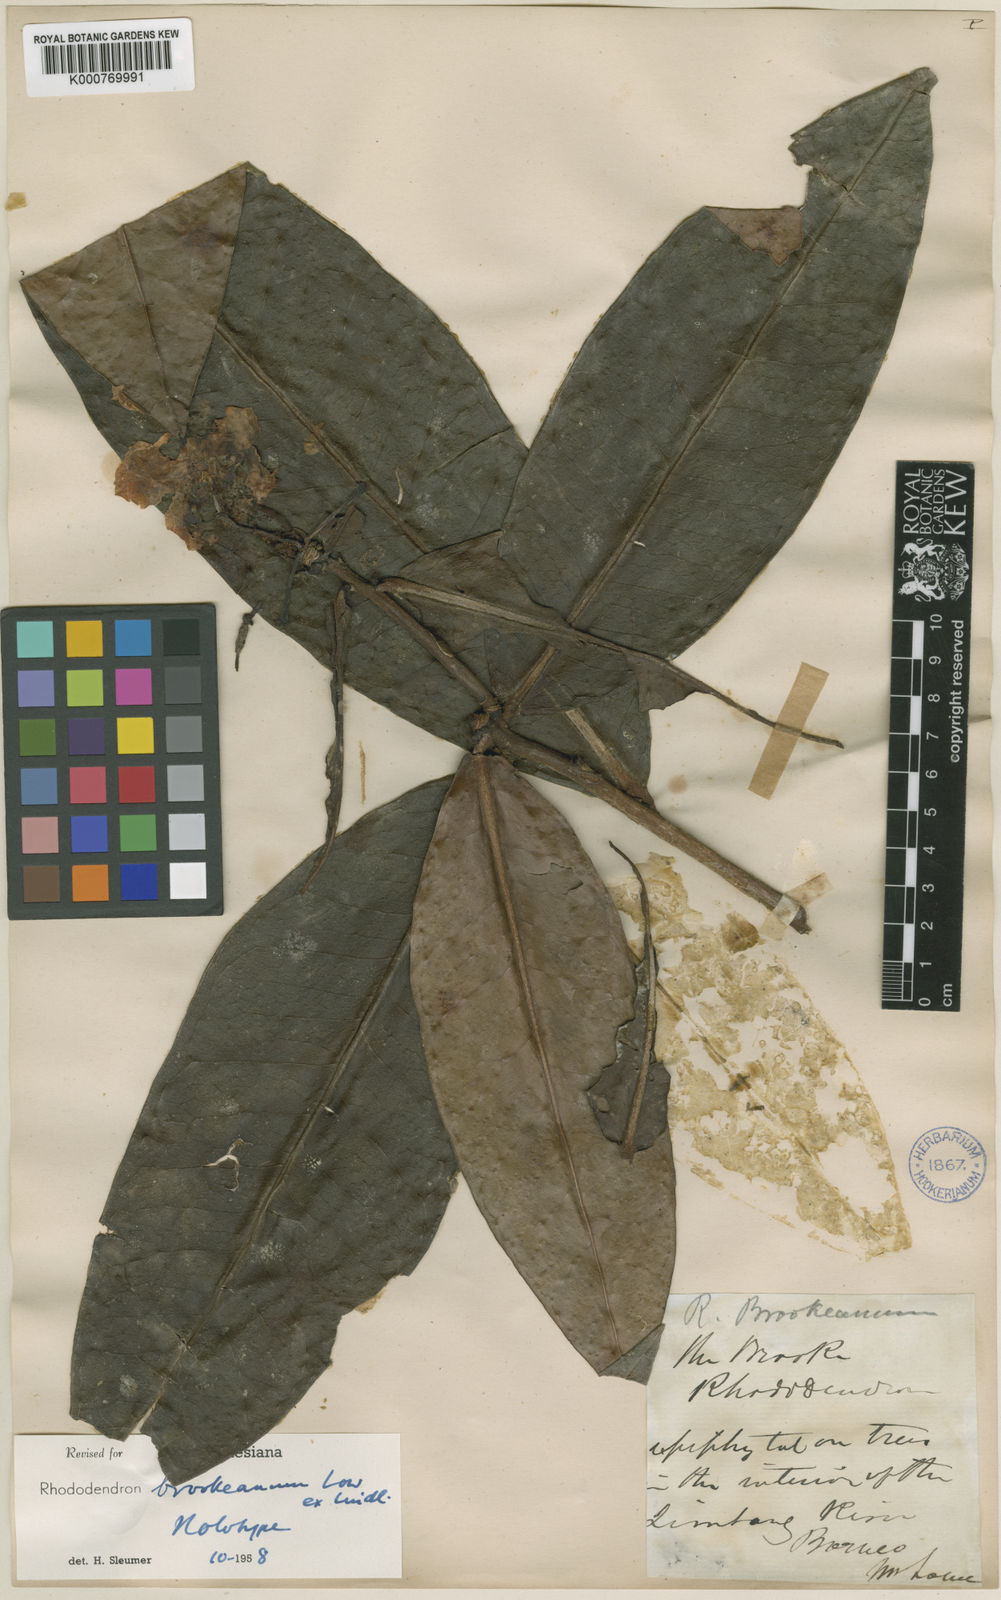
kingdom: Plantae
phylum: Tracheophyta
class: Magnoliopsida
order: Ericales
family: Ericaceae
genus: Rhododendron
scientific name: Rhododendron javanicum
